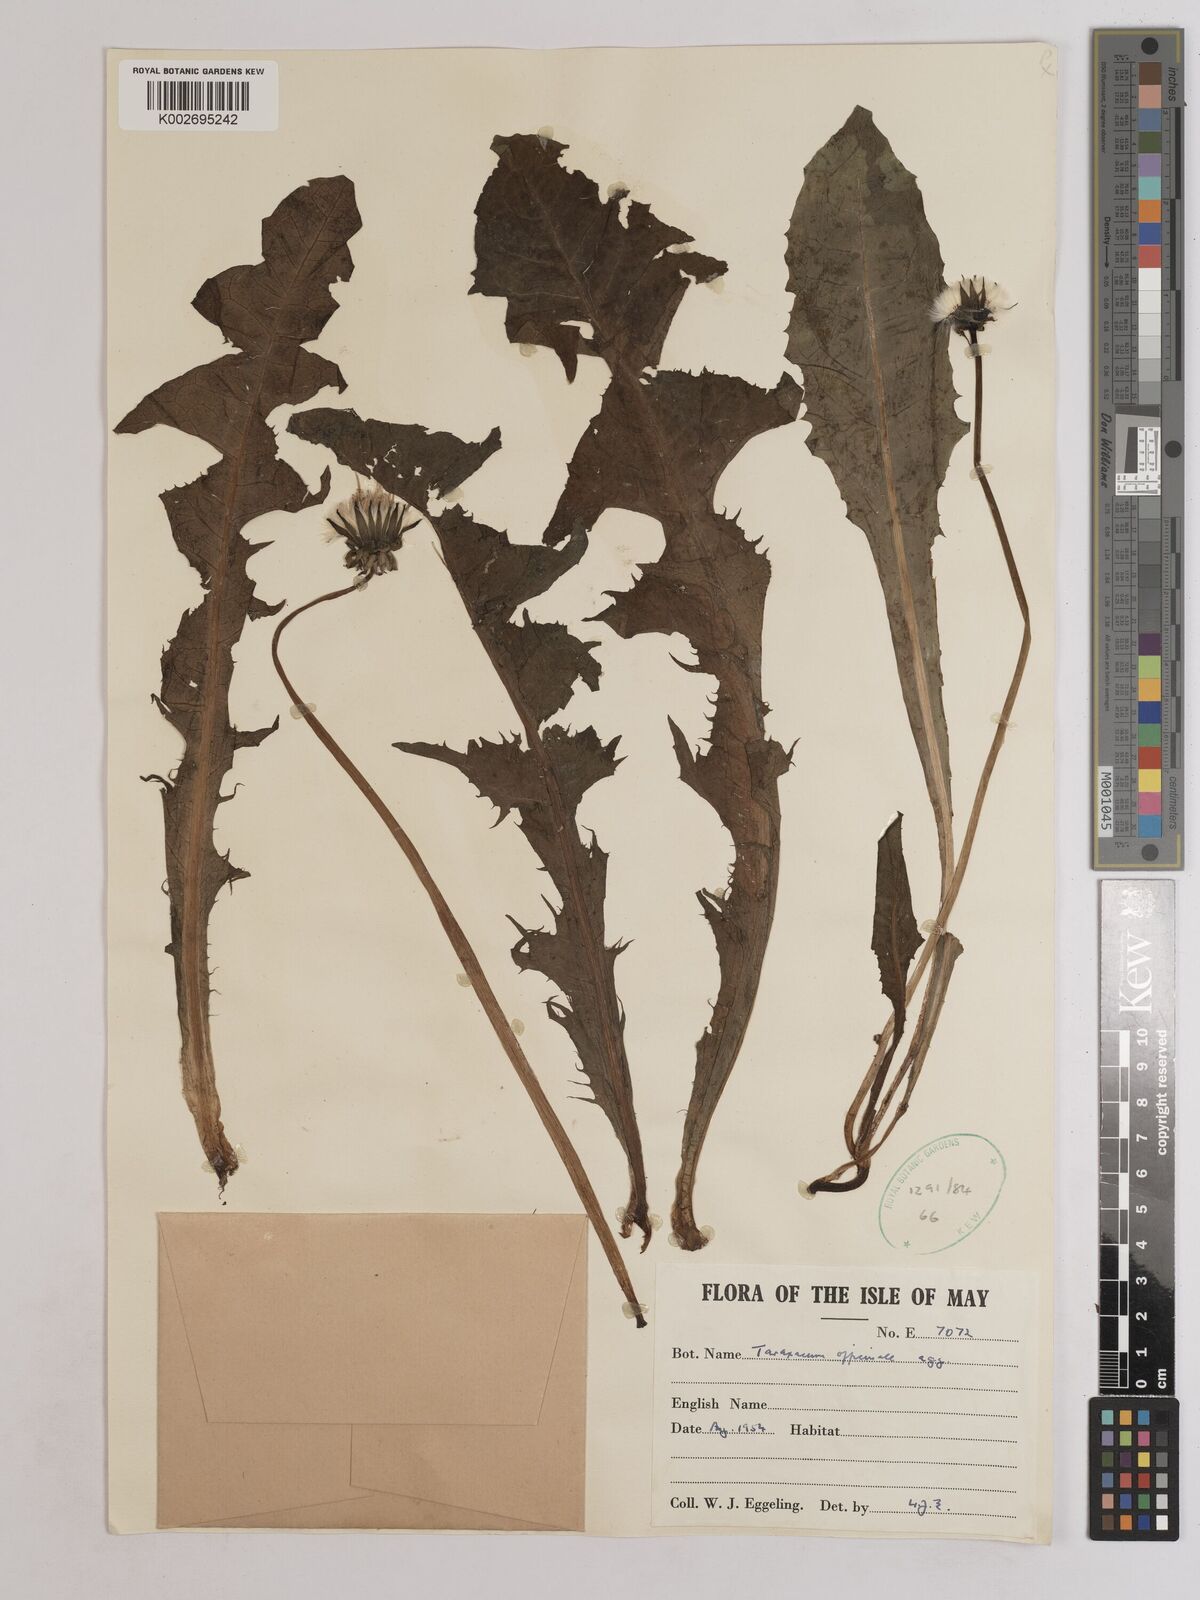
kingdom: Plantae
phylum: Tracheophyta
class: Magnoliopsida
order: Asterales
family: Asteraceae
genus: Taraxacum
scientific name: Taraxacum officinale
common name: Common dandelion
